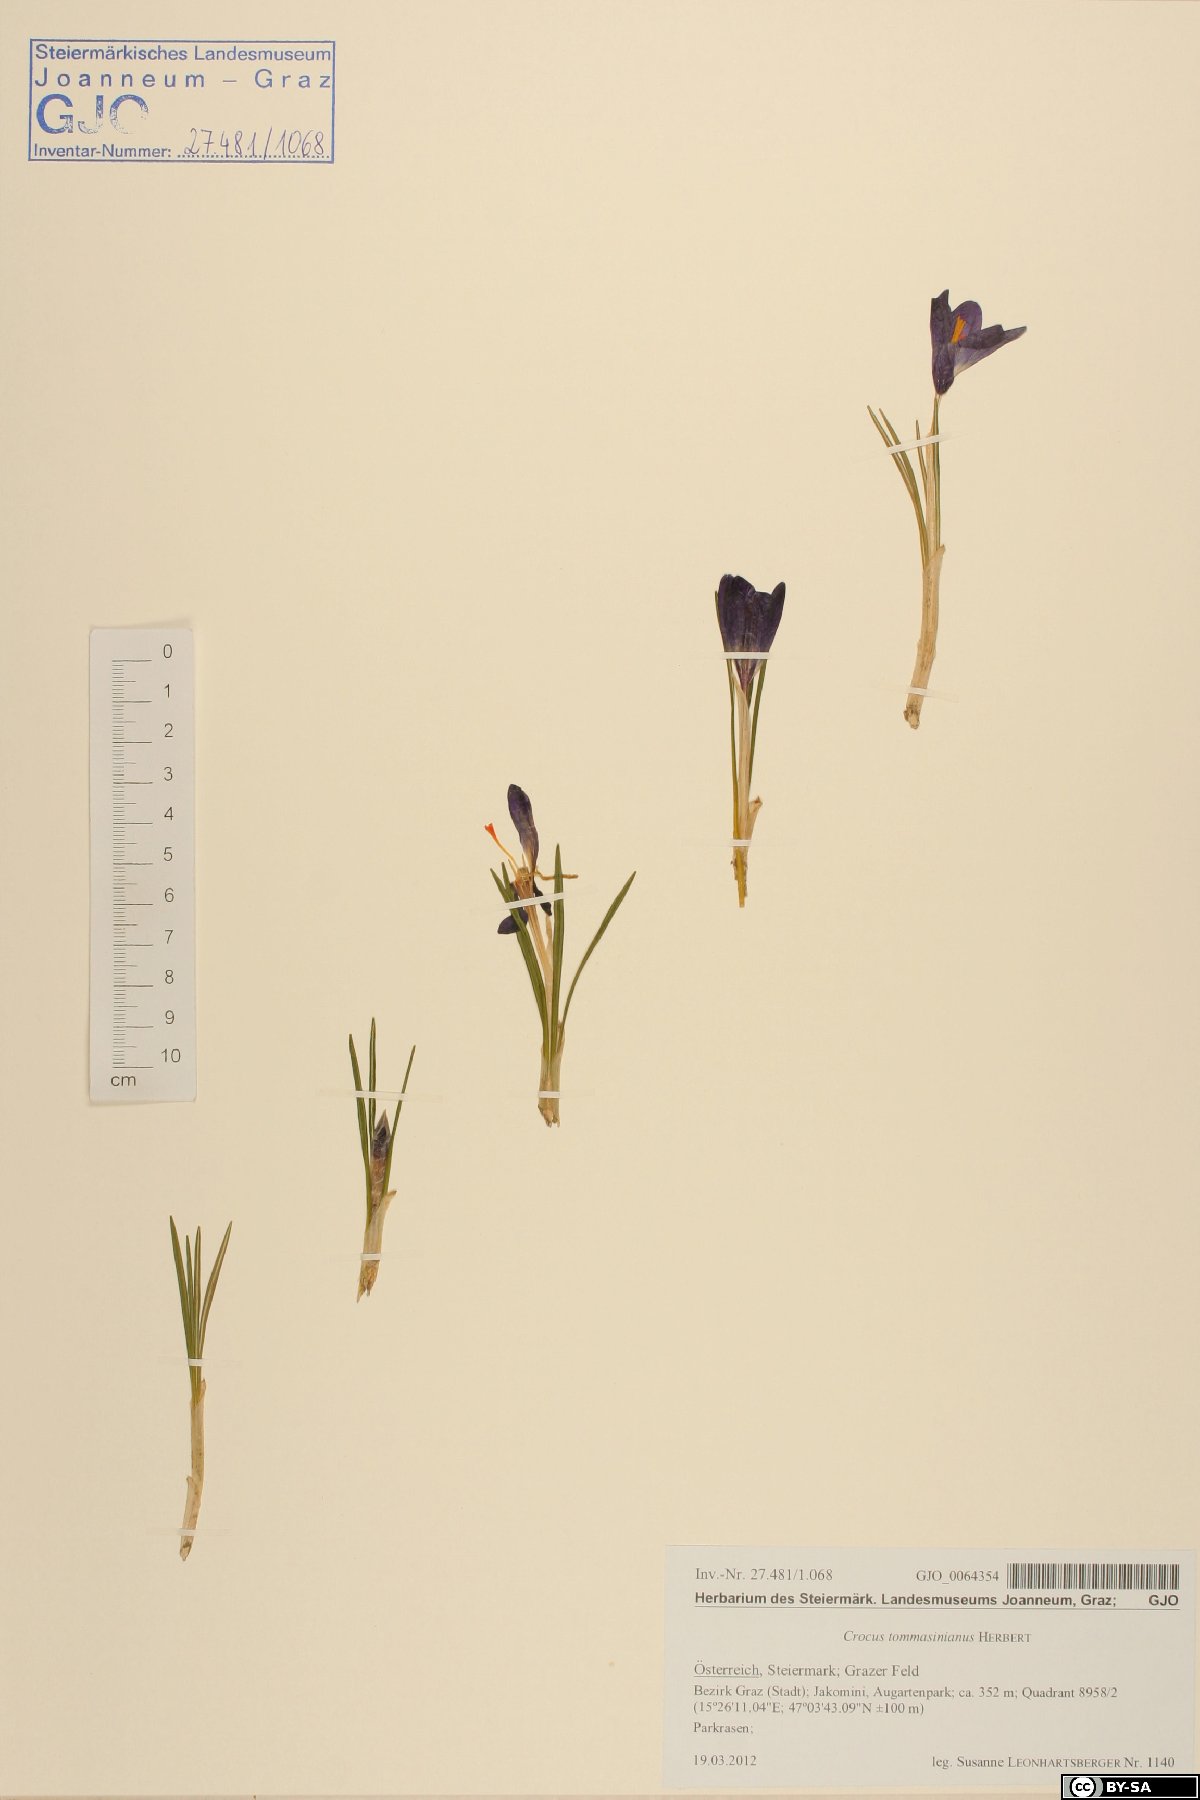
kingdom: Plantae
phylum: Tracheophyta
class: Liliopsida
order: Asparagales
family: Iridaceae
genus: Crocus
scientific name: Crocus tommasinianus
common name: Early crocus
